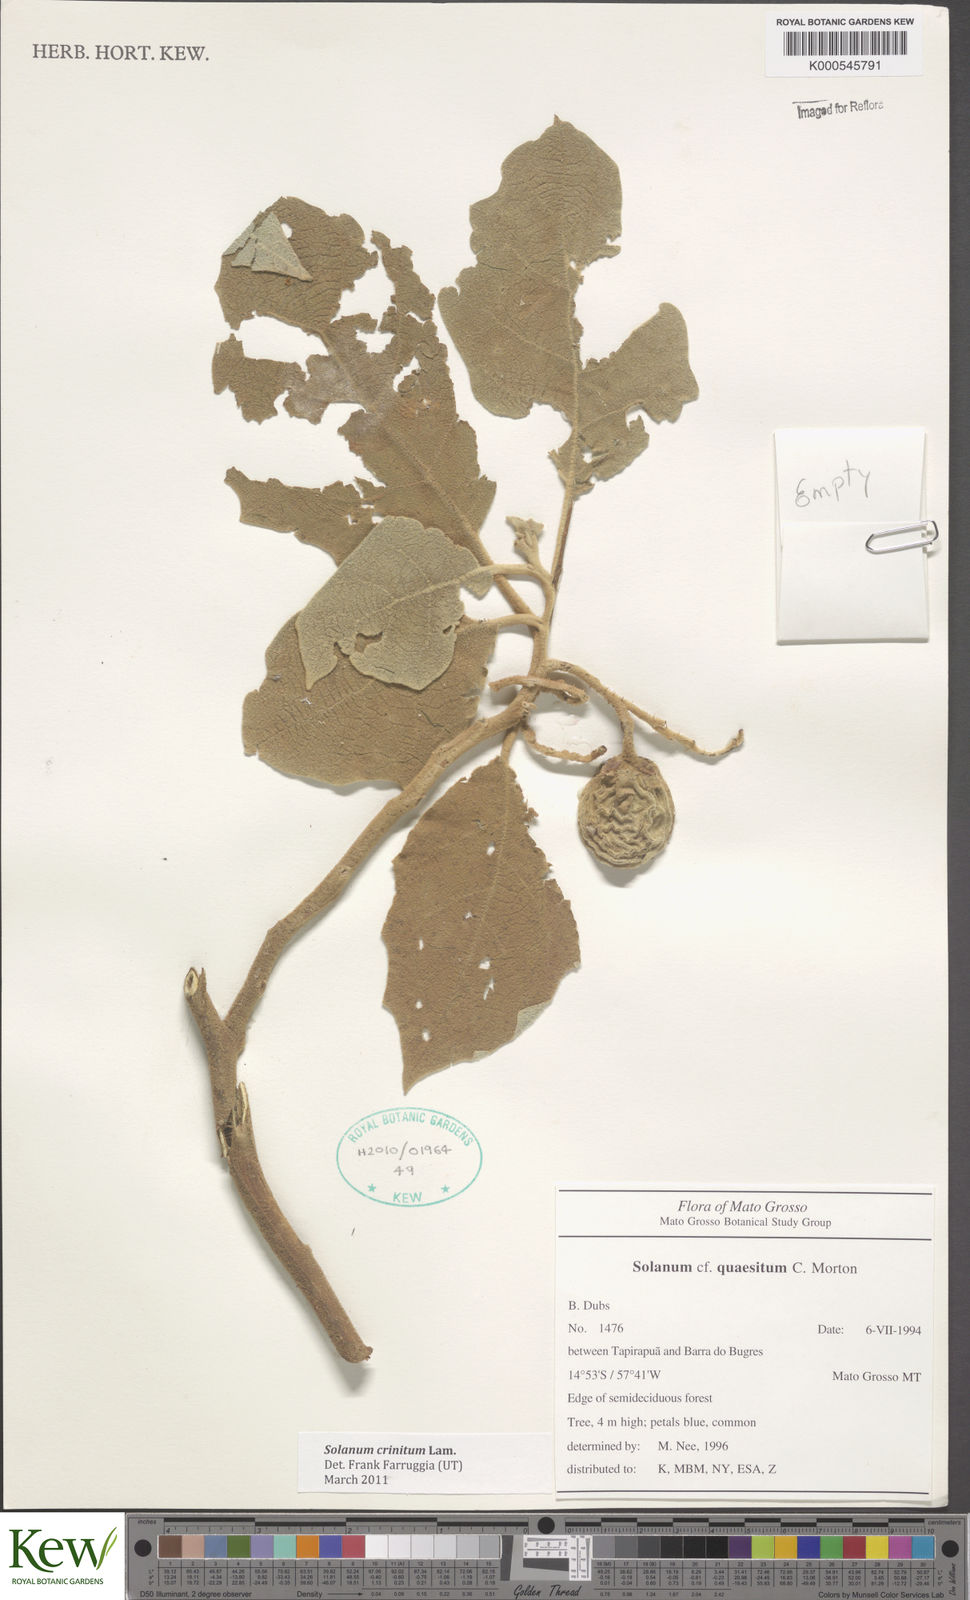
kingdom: Plantae
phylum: Tracheophyta
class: Magnoliopsida
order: Solanales
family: Solanaceae
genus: Solanum
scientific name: Solanum crinitum
